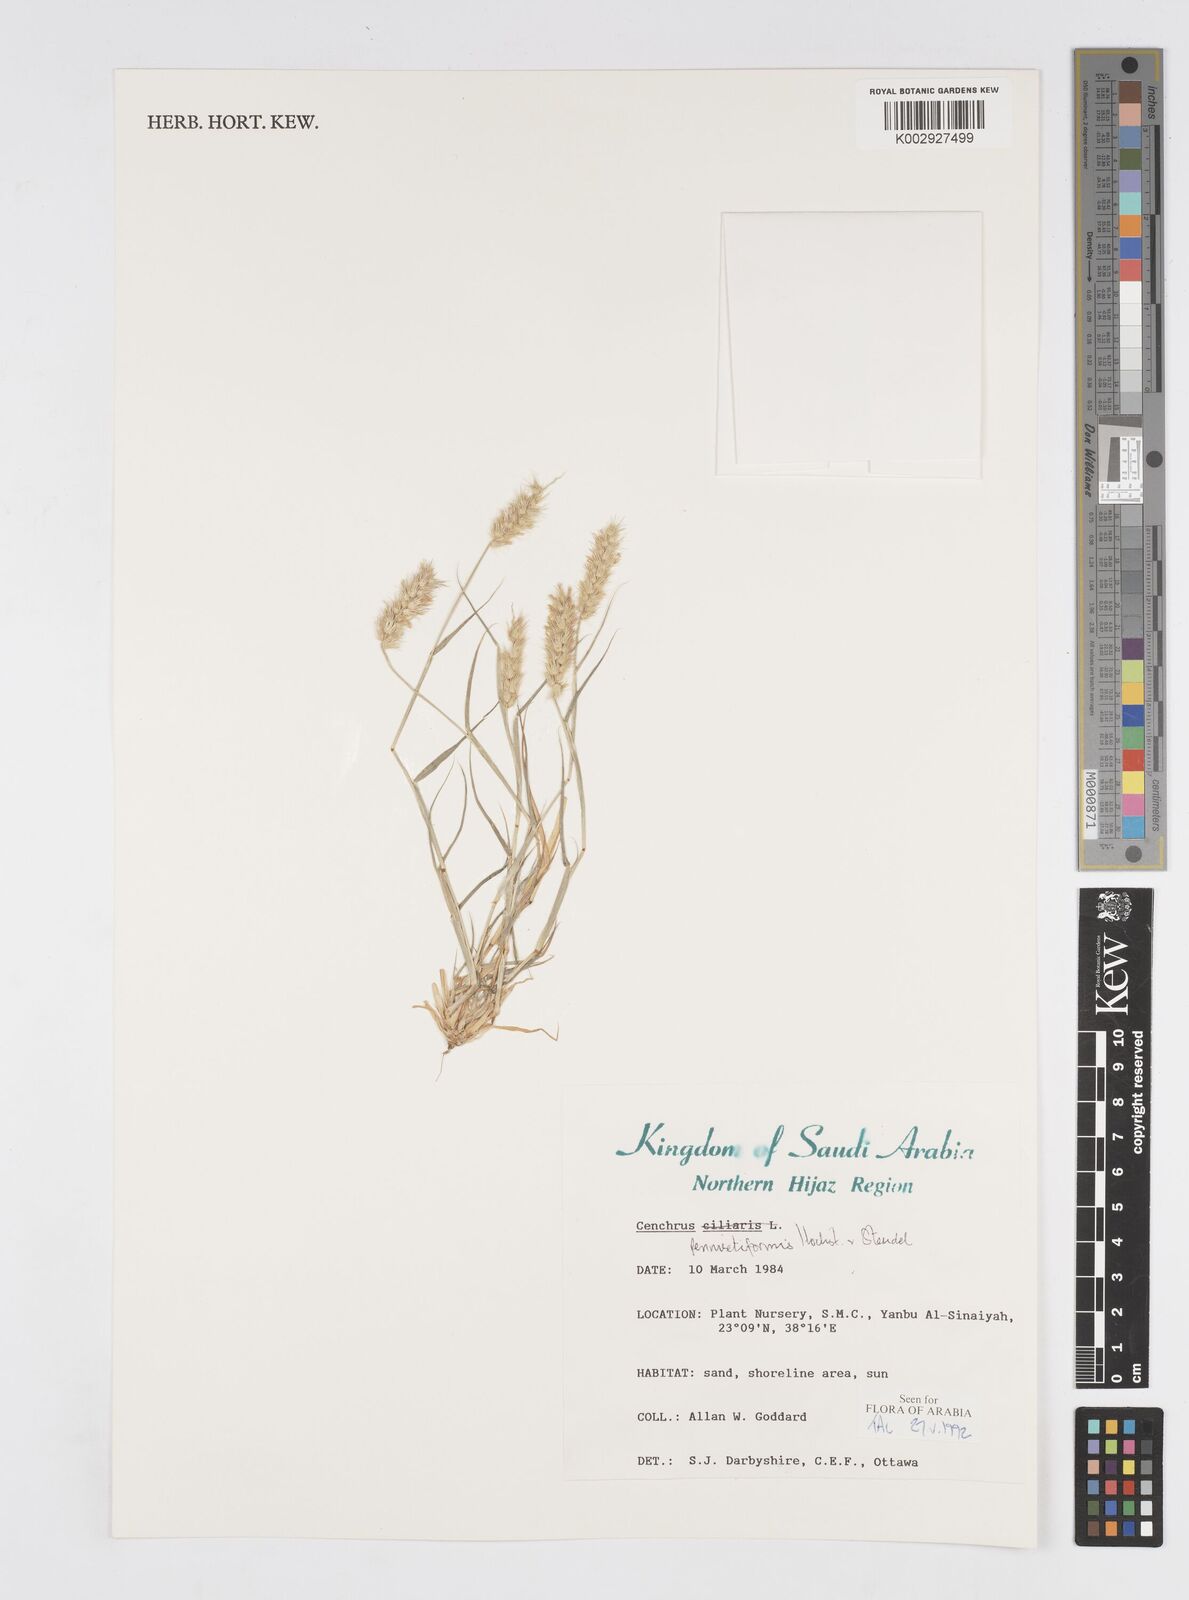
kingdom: Plantae
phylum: Tracheophyta
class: Liliopsida
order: Poales
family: Poaceae
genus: Cenchrus
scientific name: Cenchrus pennisetiformis
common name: Cloncurry
